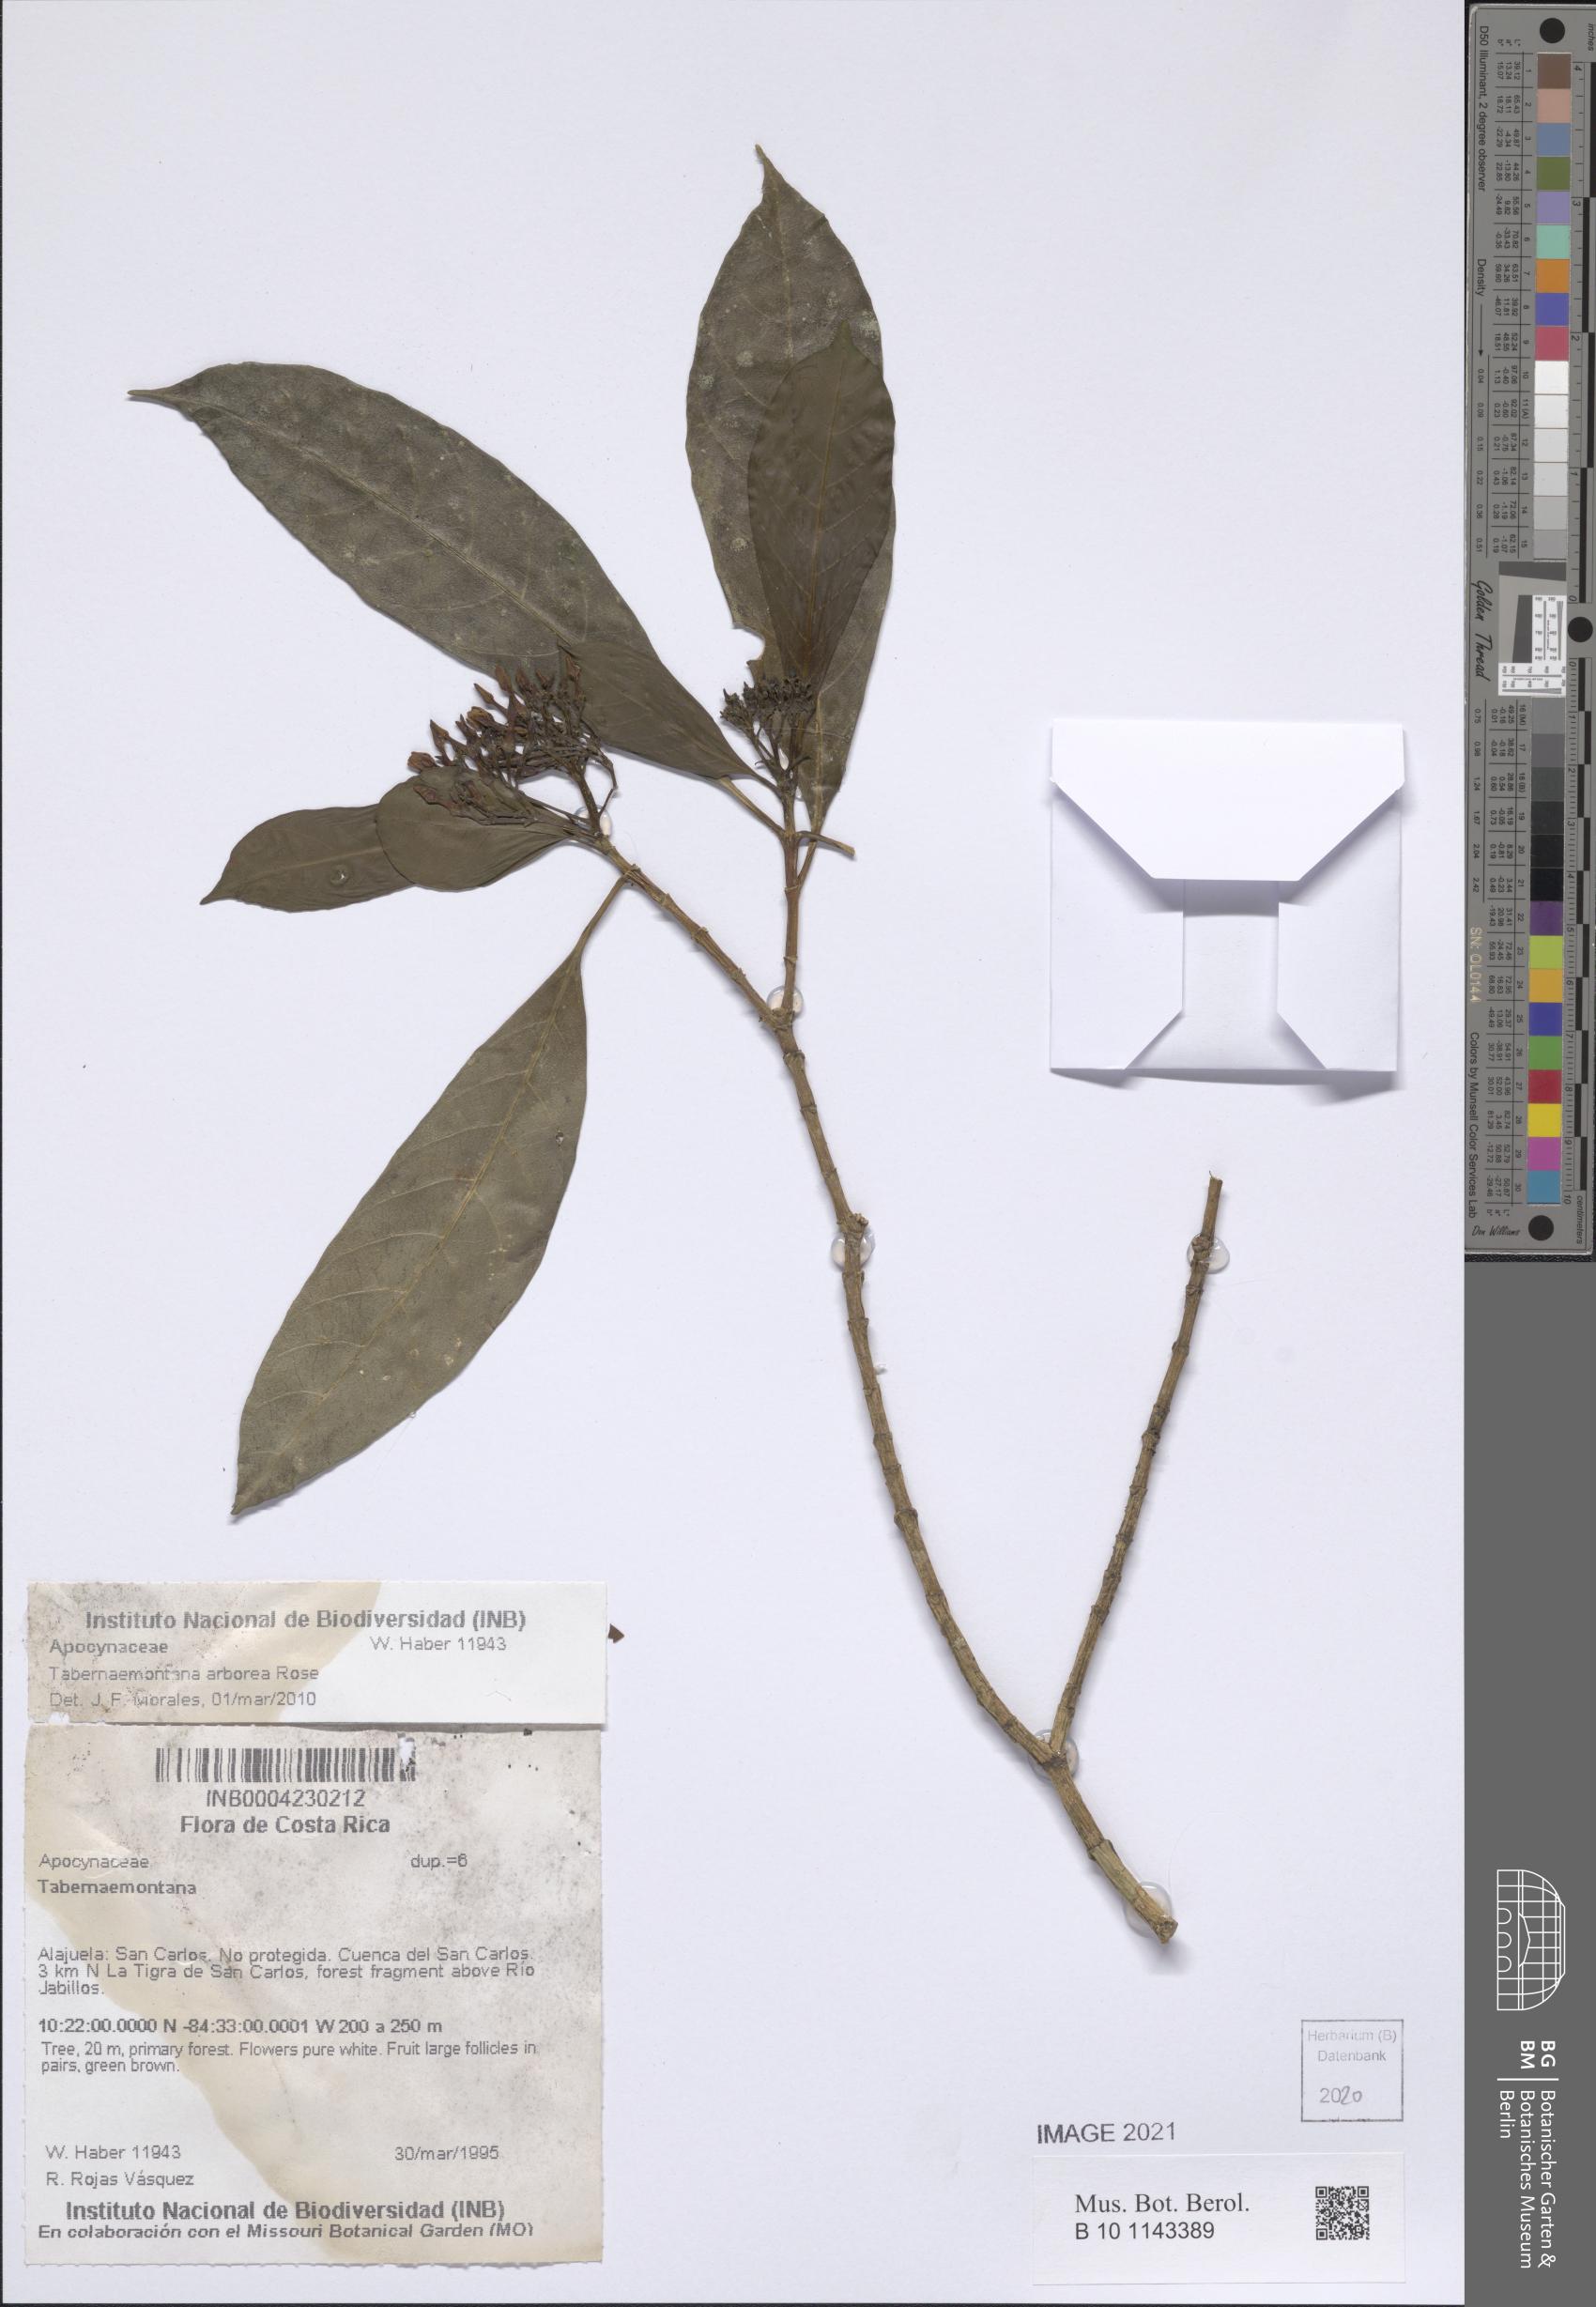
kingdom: Plantae
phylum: Tracheophyta
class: Magnoliopsida
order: Gentianales
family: Apocynaceae
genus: Tabernaemontana
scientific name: Tabernaemontana arborea
